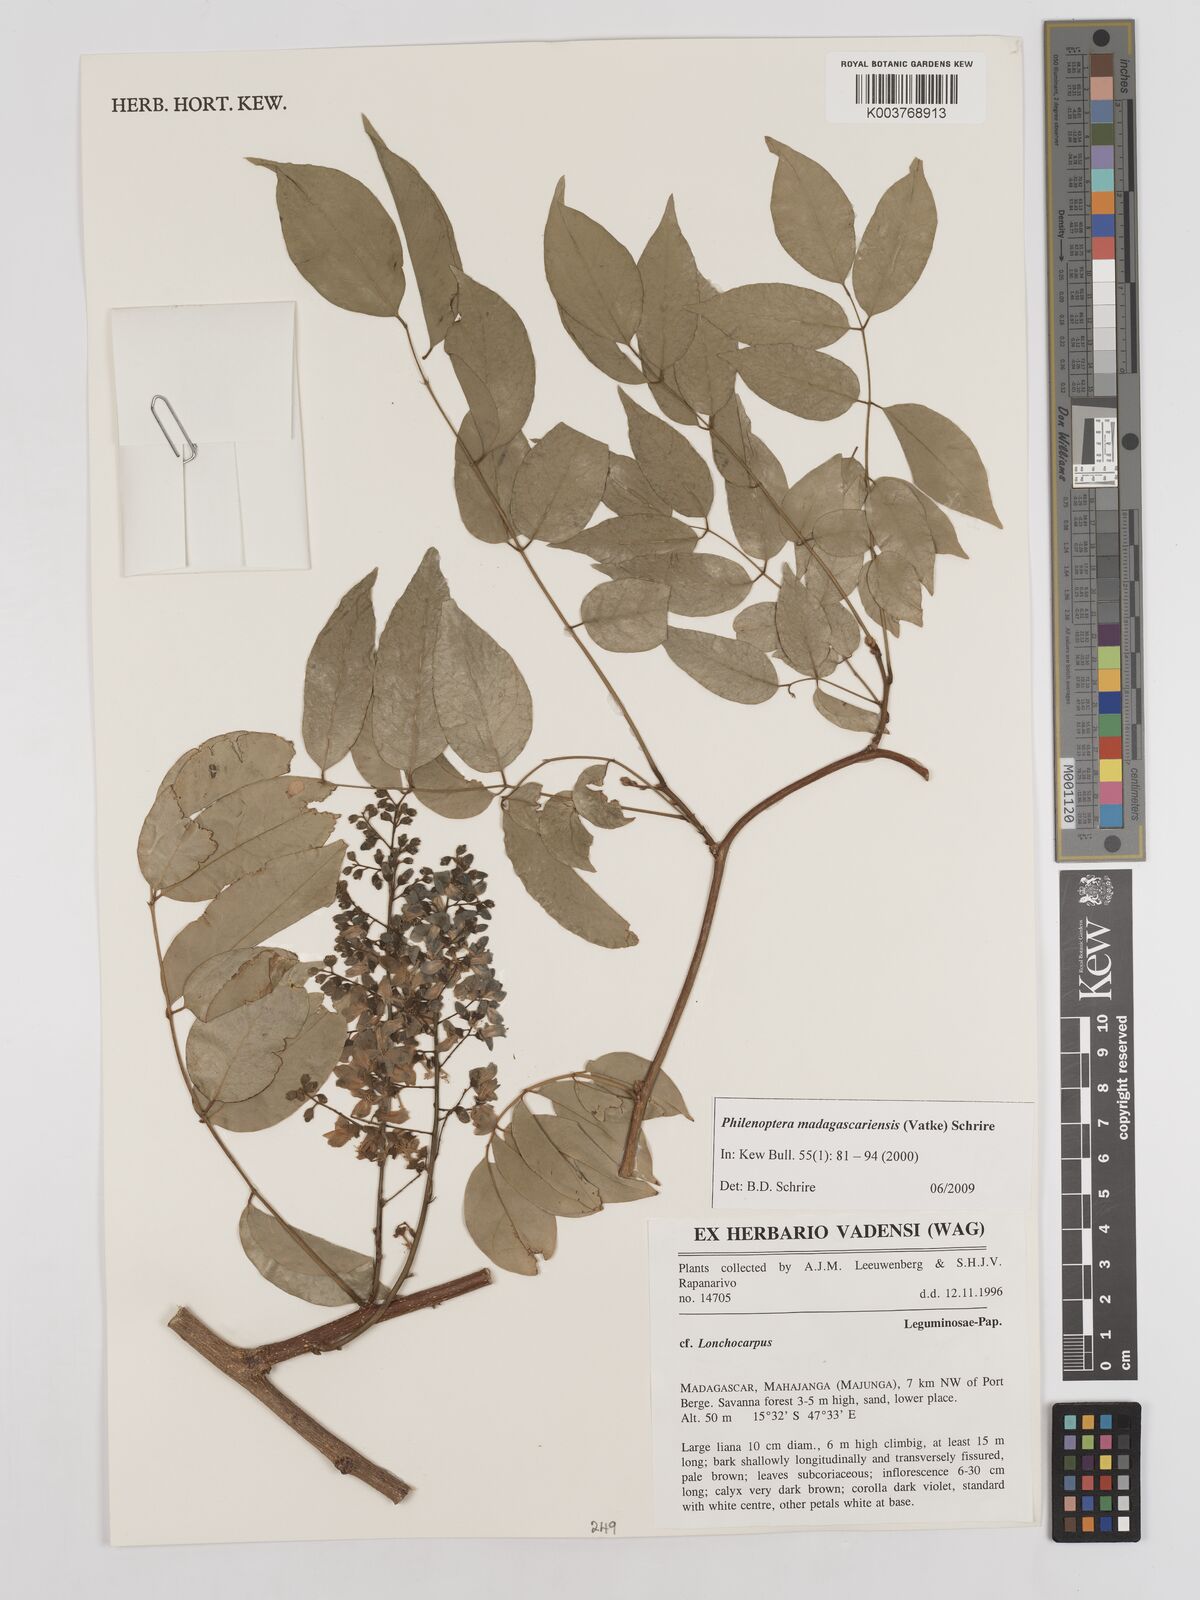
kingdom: Plantae
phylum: Tracheophyta
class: Magnoliopsida
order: Fabales
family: Fabaceae
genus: Lonchocarpus
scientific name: Lonchocarpus madagascariensis
